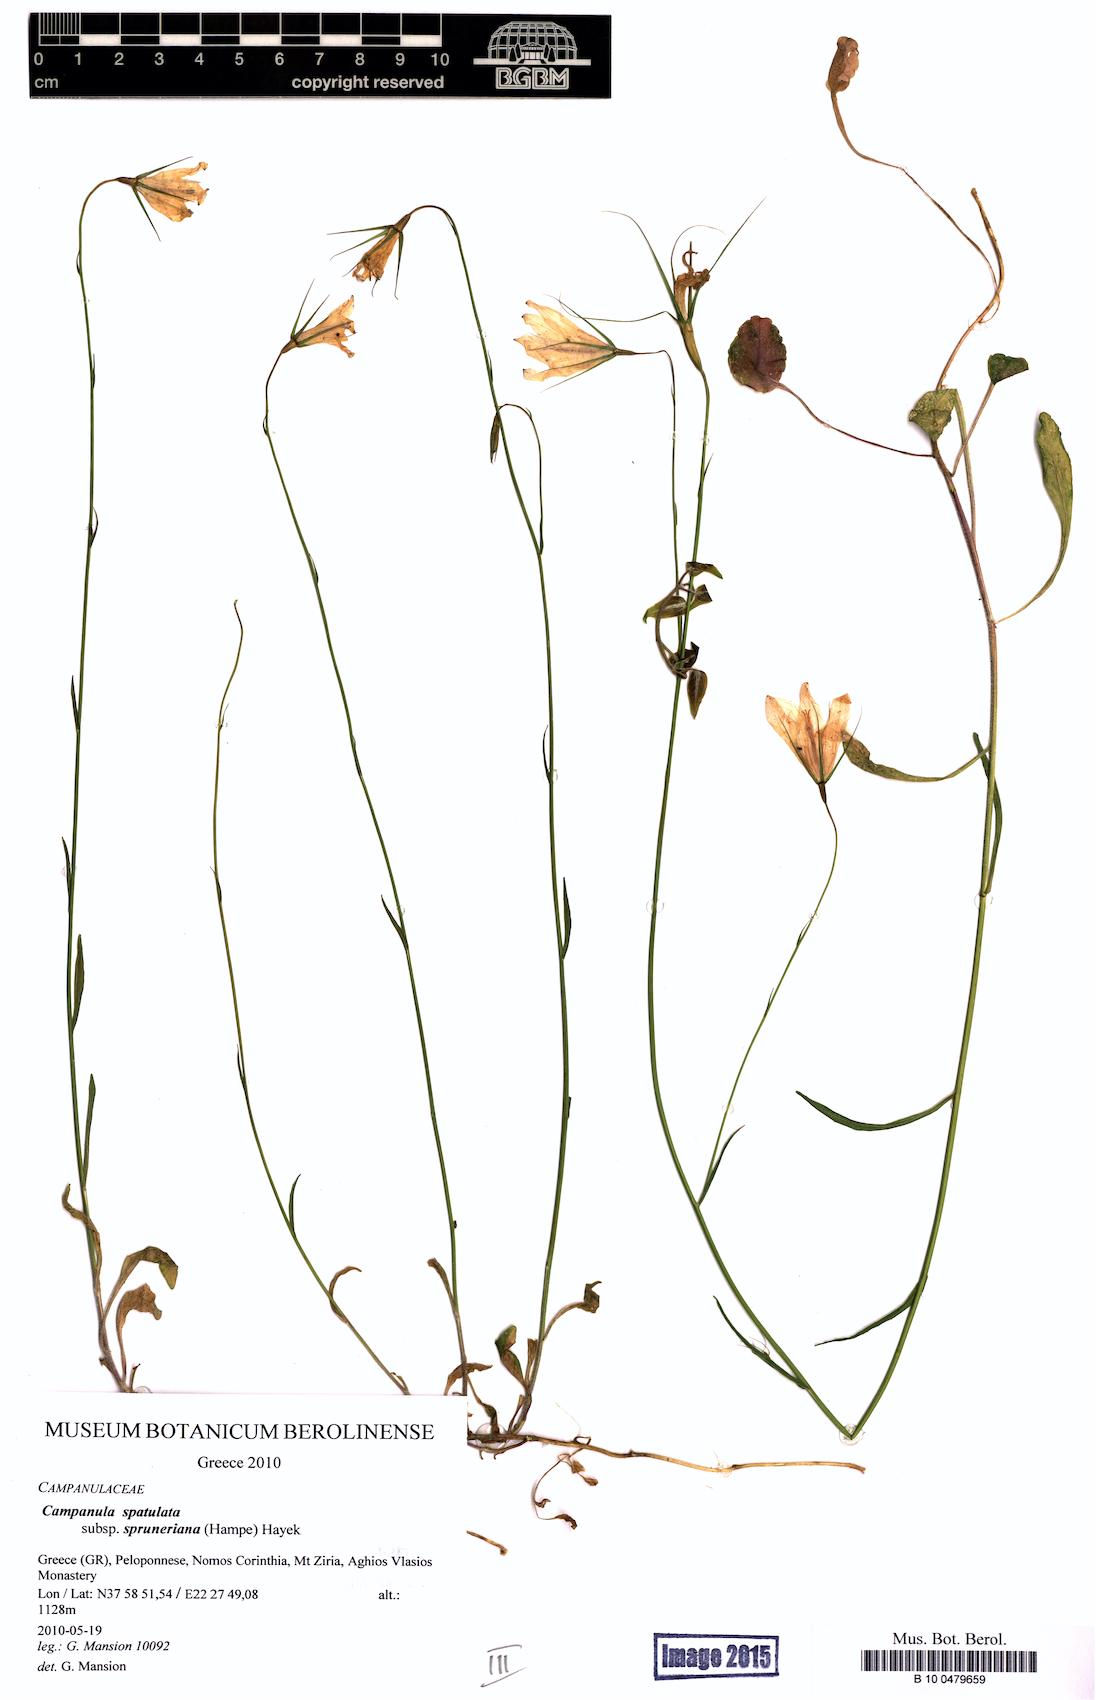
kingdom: Plantae
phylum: Tracheophyta
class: Magnoliopsida
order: Asterales
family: Campanulaceae
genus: Campanula
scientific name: Campanula spatulata
